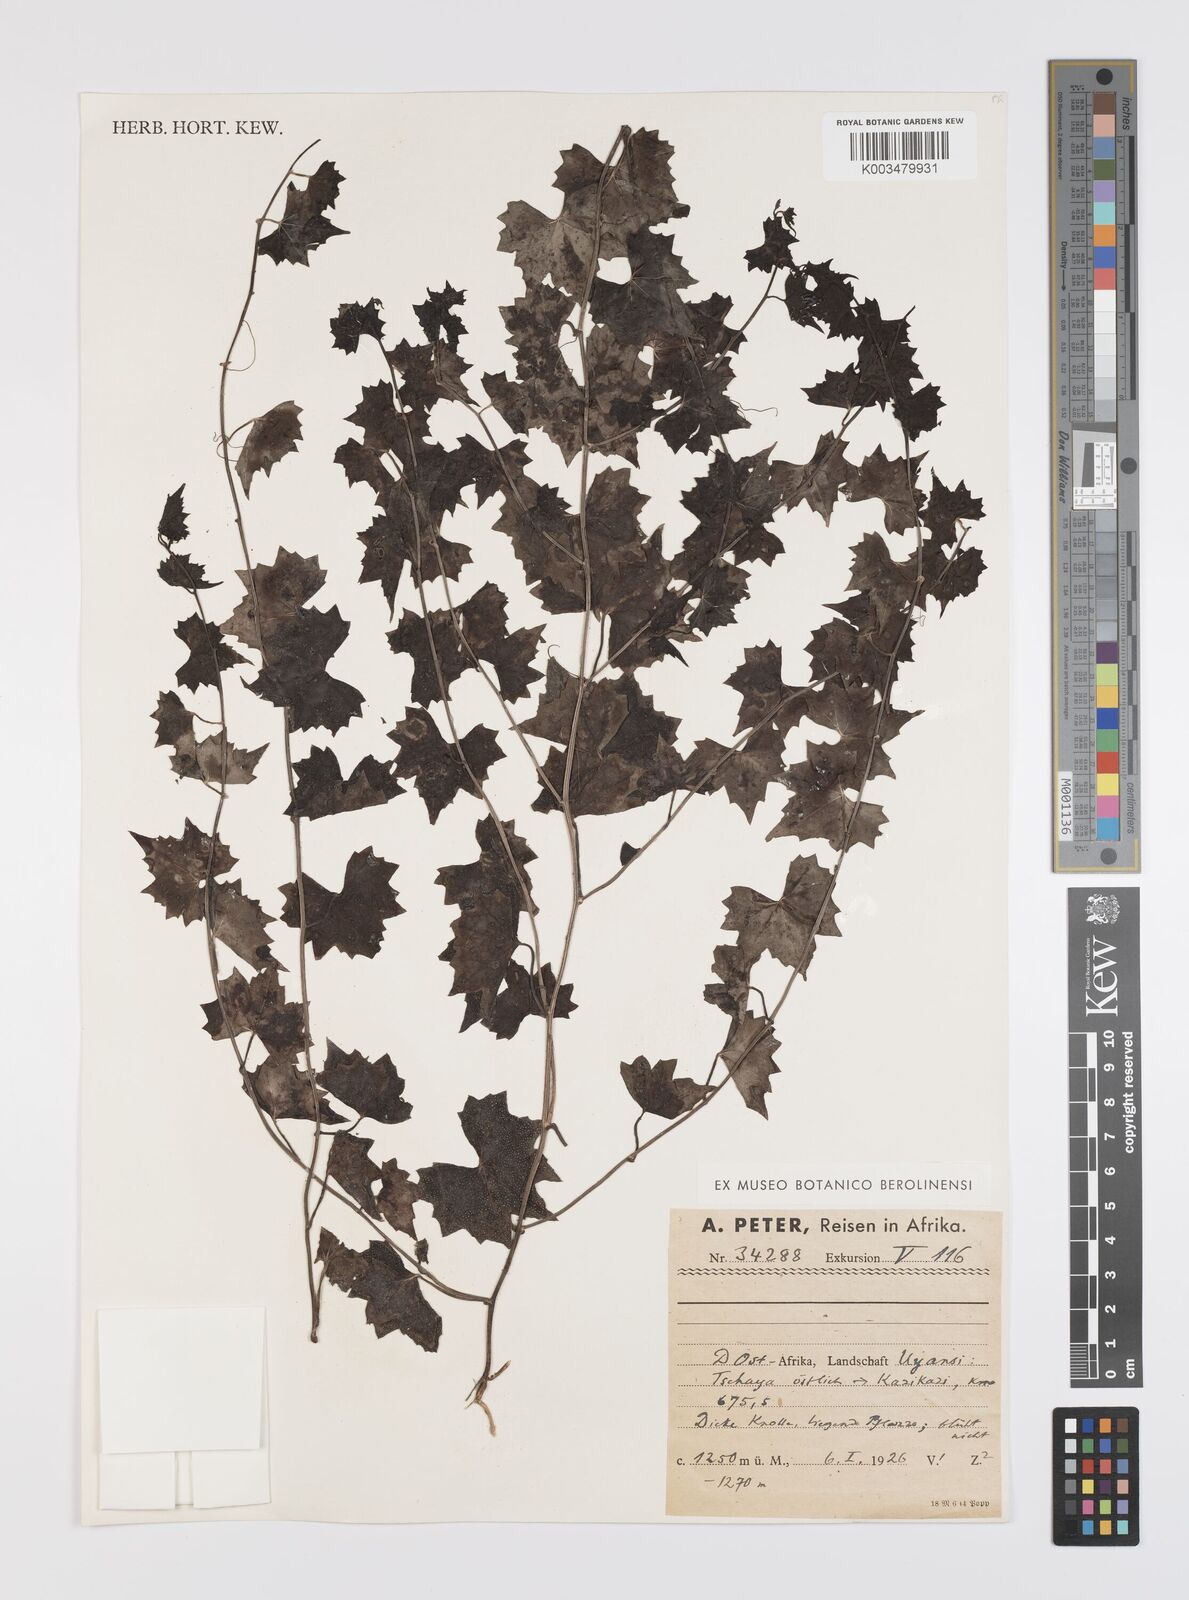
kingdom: Plantae
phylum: Tracheophyta
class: Magnoliopsida
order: Cucurbitales
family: Cucurbitaceae
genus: Trochomeria
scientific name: Trochomeria macrocarpa
